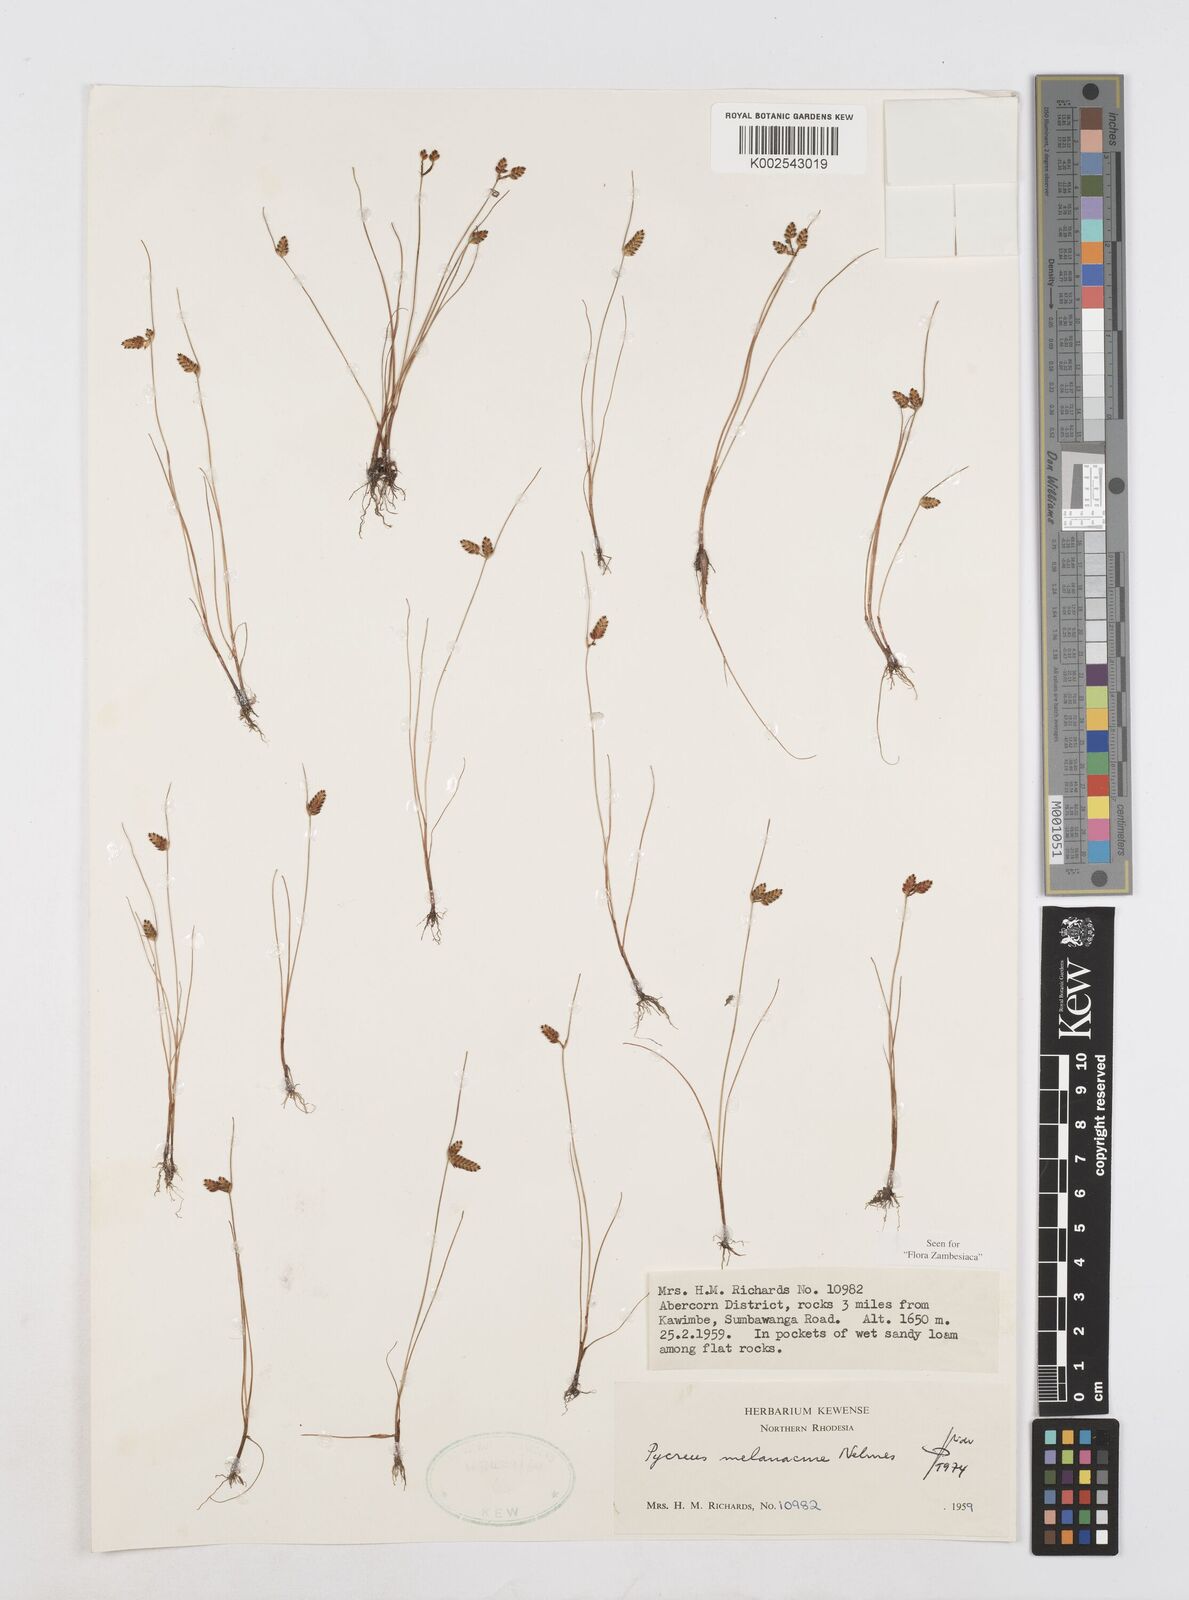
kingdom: Plantae
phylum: Tracheophyta
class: Liliopsida
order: Poales
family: Cyperaceae
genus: Cyperus
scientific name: Cyperus melanacme
